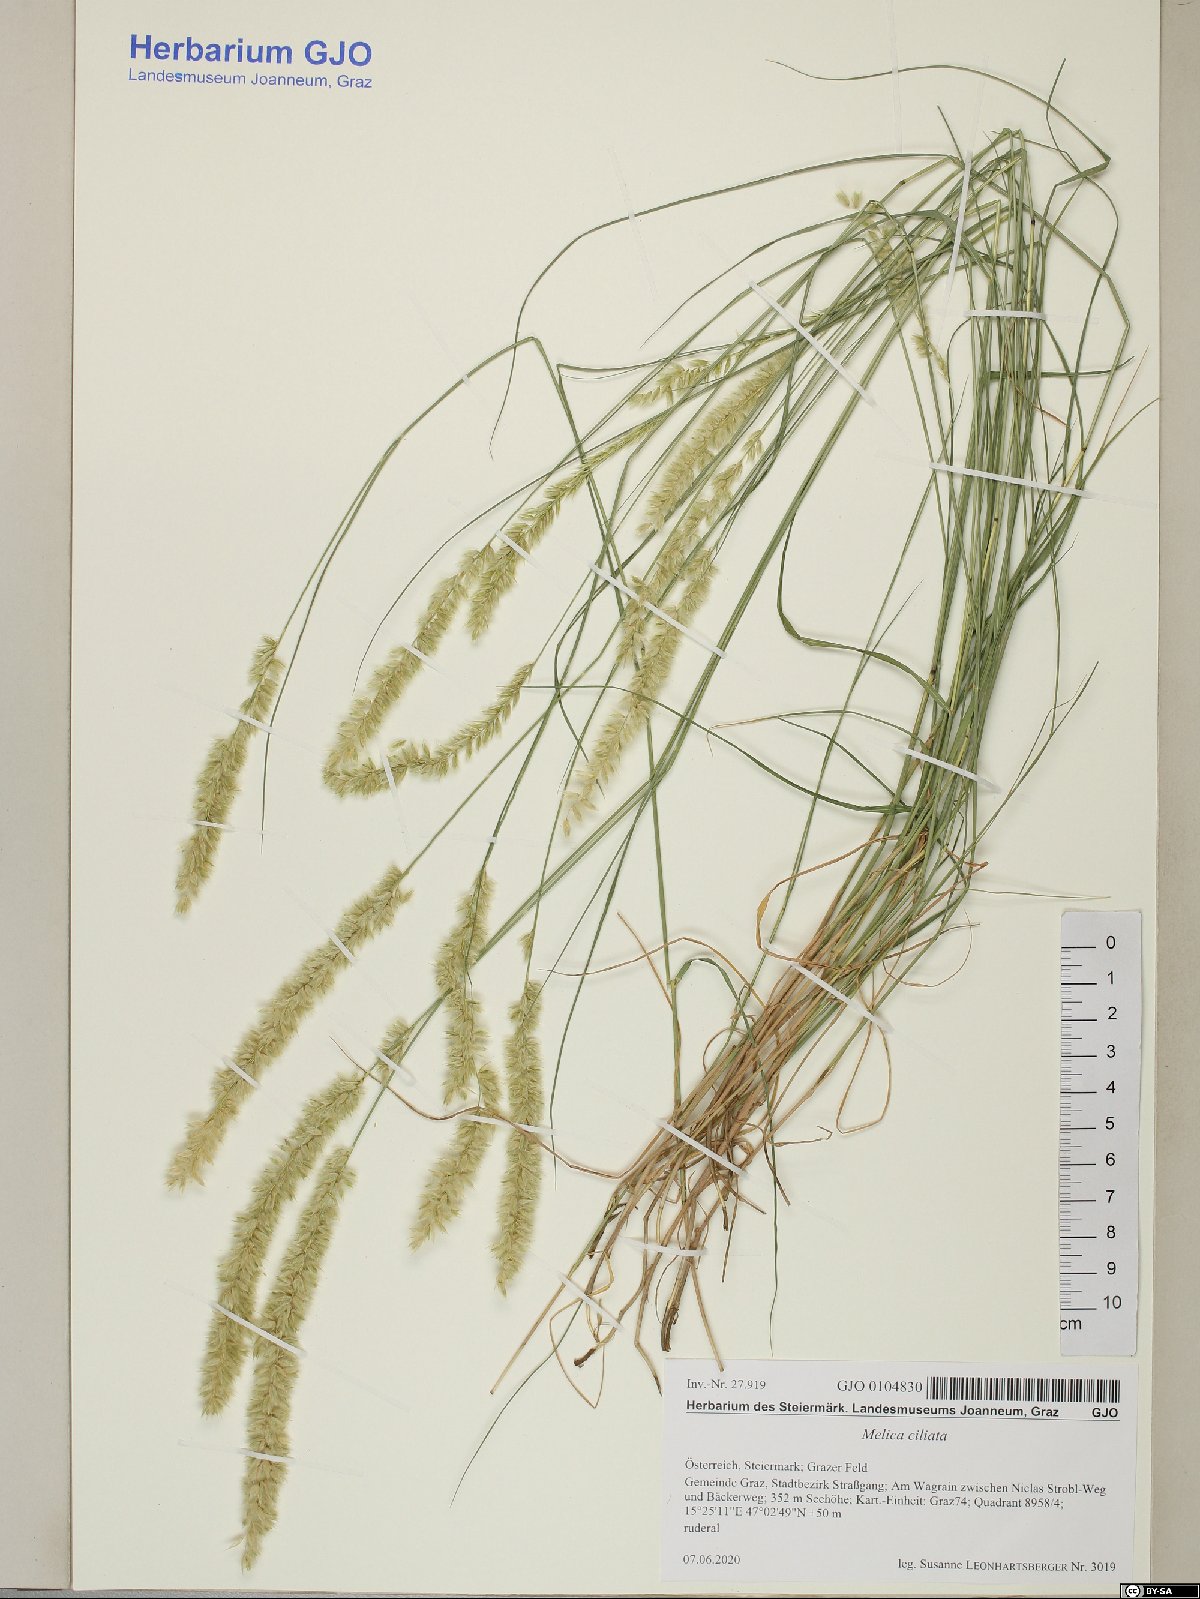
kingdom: Plantae
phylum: Tracheophyta
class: Liliopsida
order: Poales
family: Poaceae
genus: Melica
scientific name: Melica ciliata
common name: Hairy melicgrass
